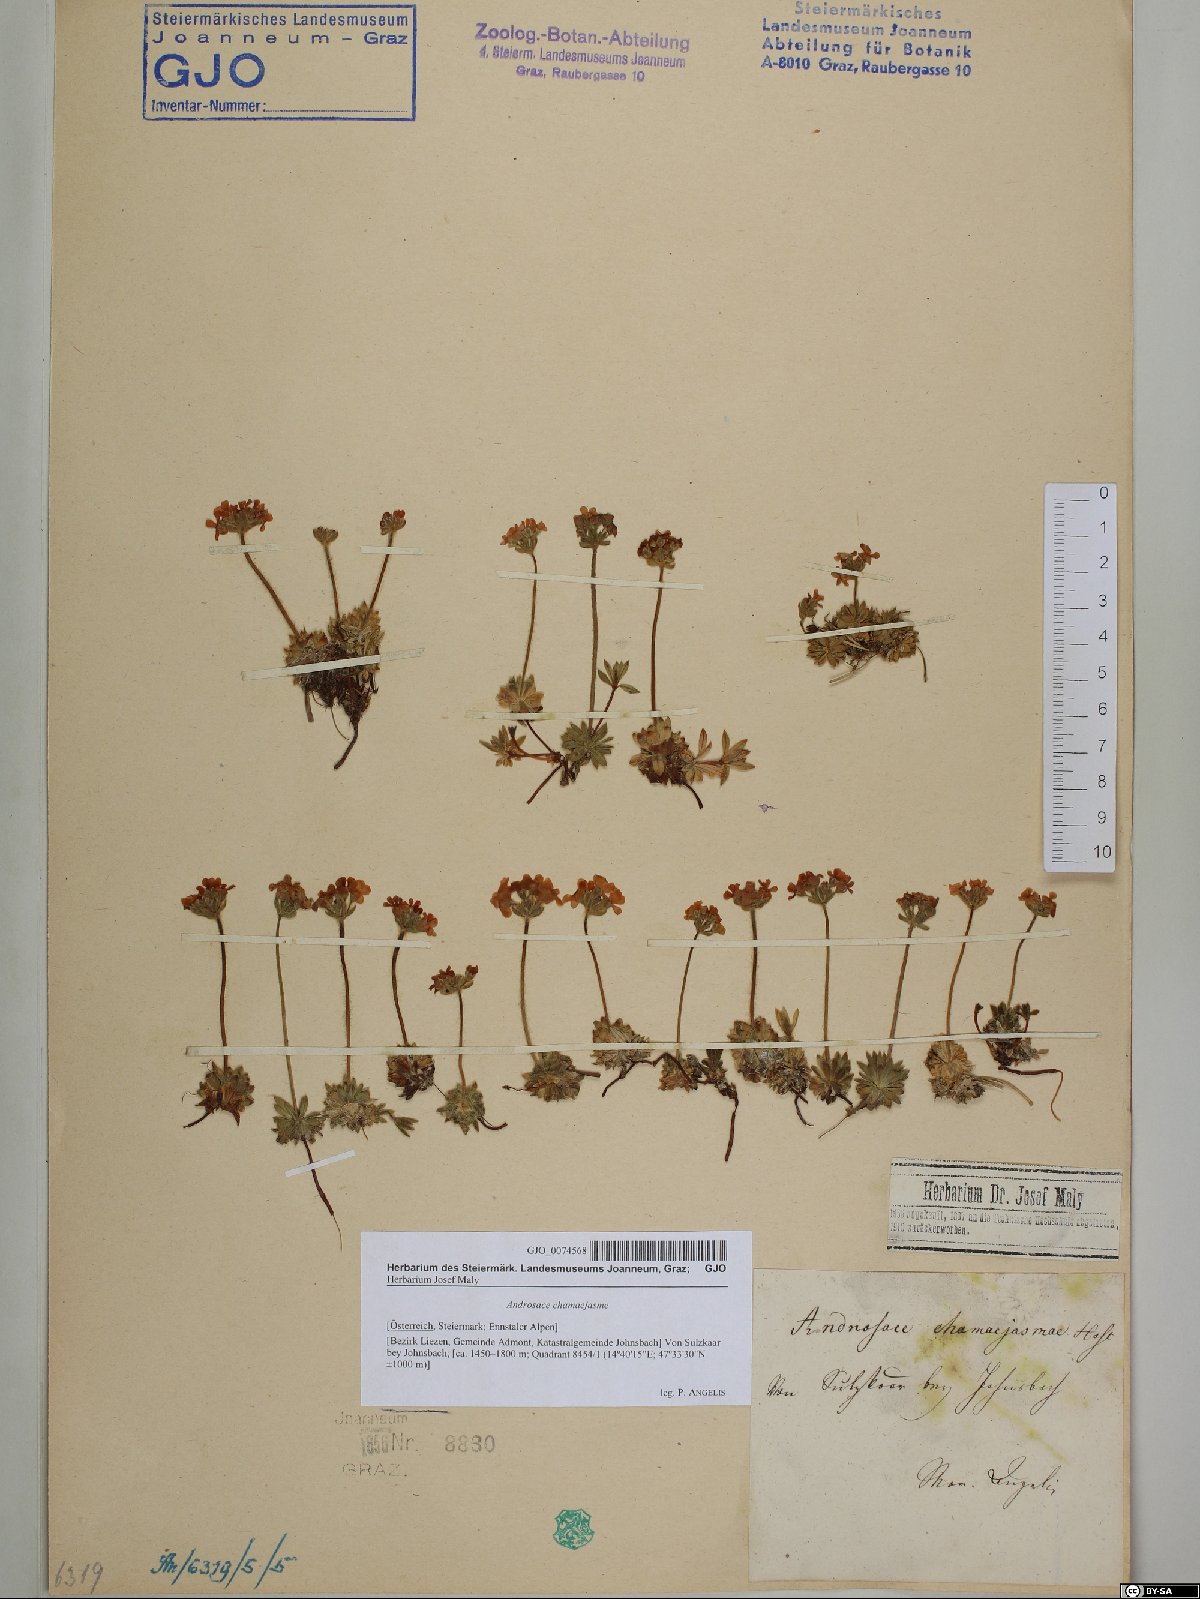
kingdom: Plantae
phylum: Tracheophyta
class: Magnoliopsida
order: Ericales
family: Primulaceae
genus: Androsace
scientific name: Androsace chamaejasme
